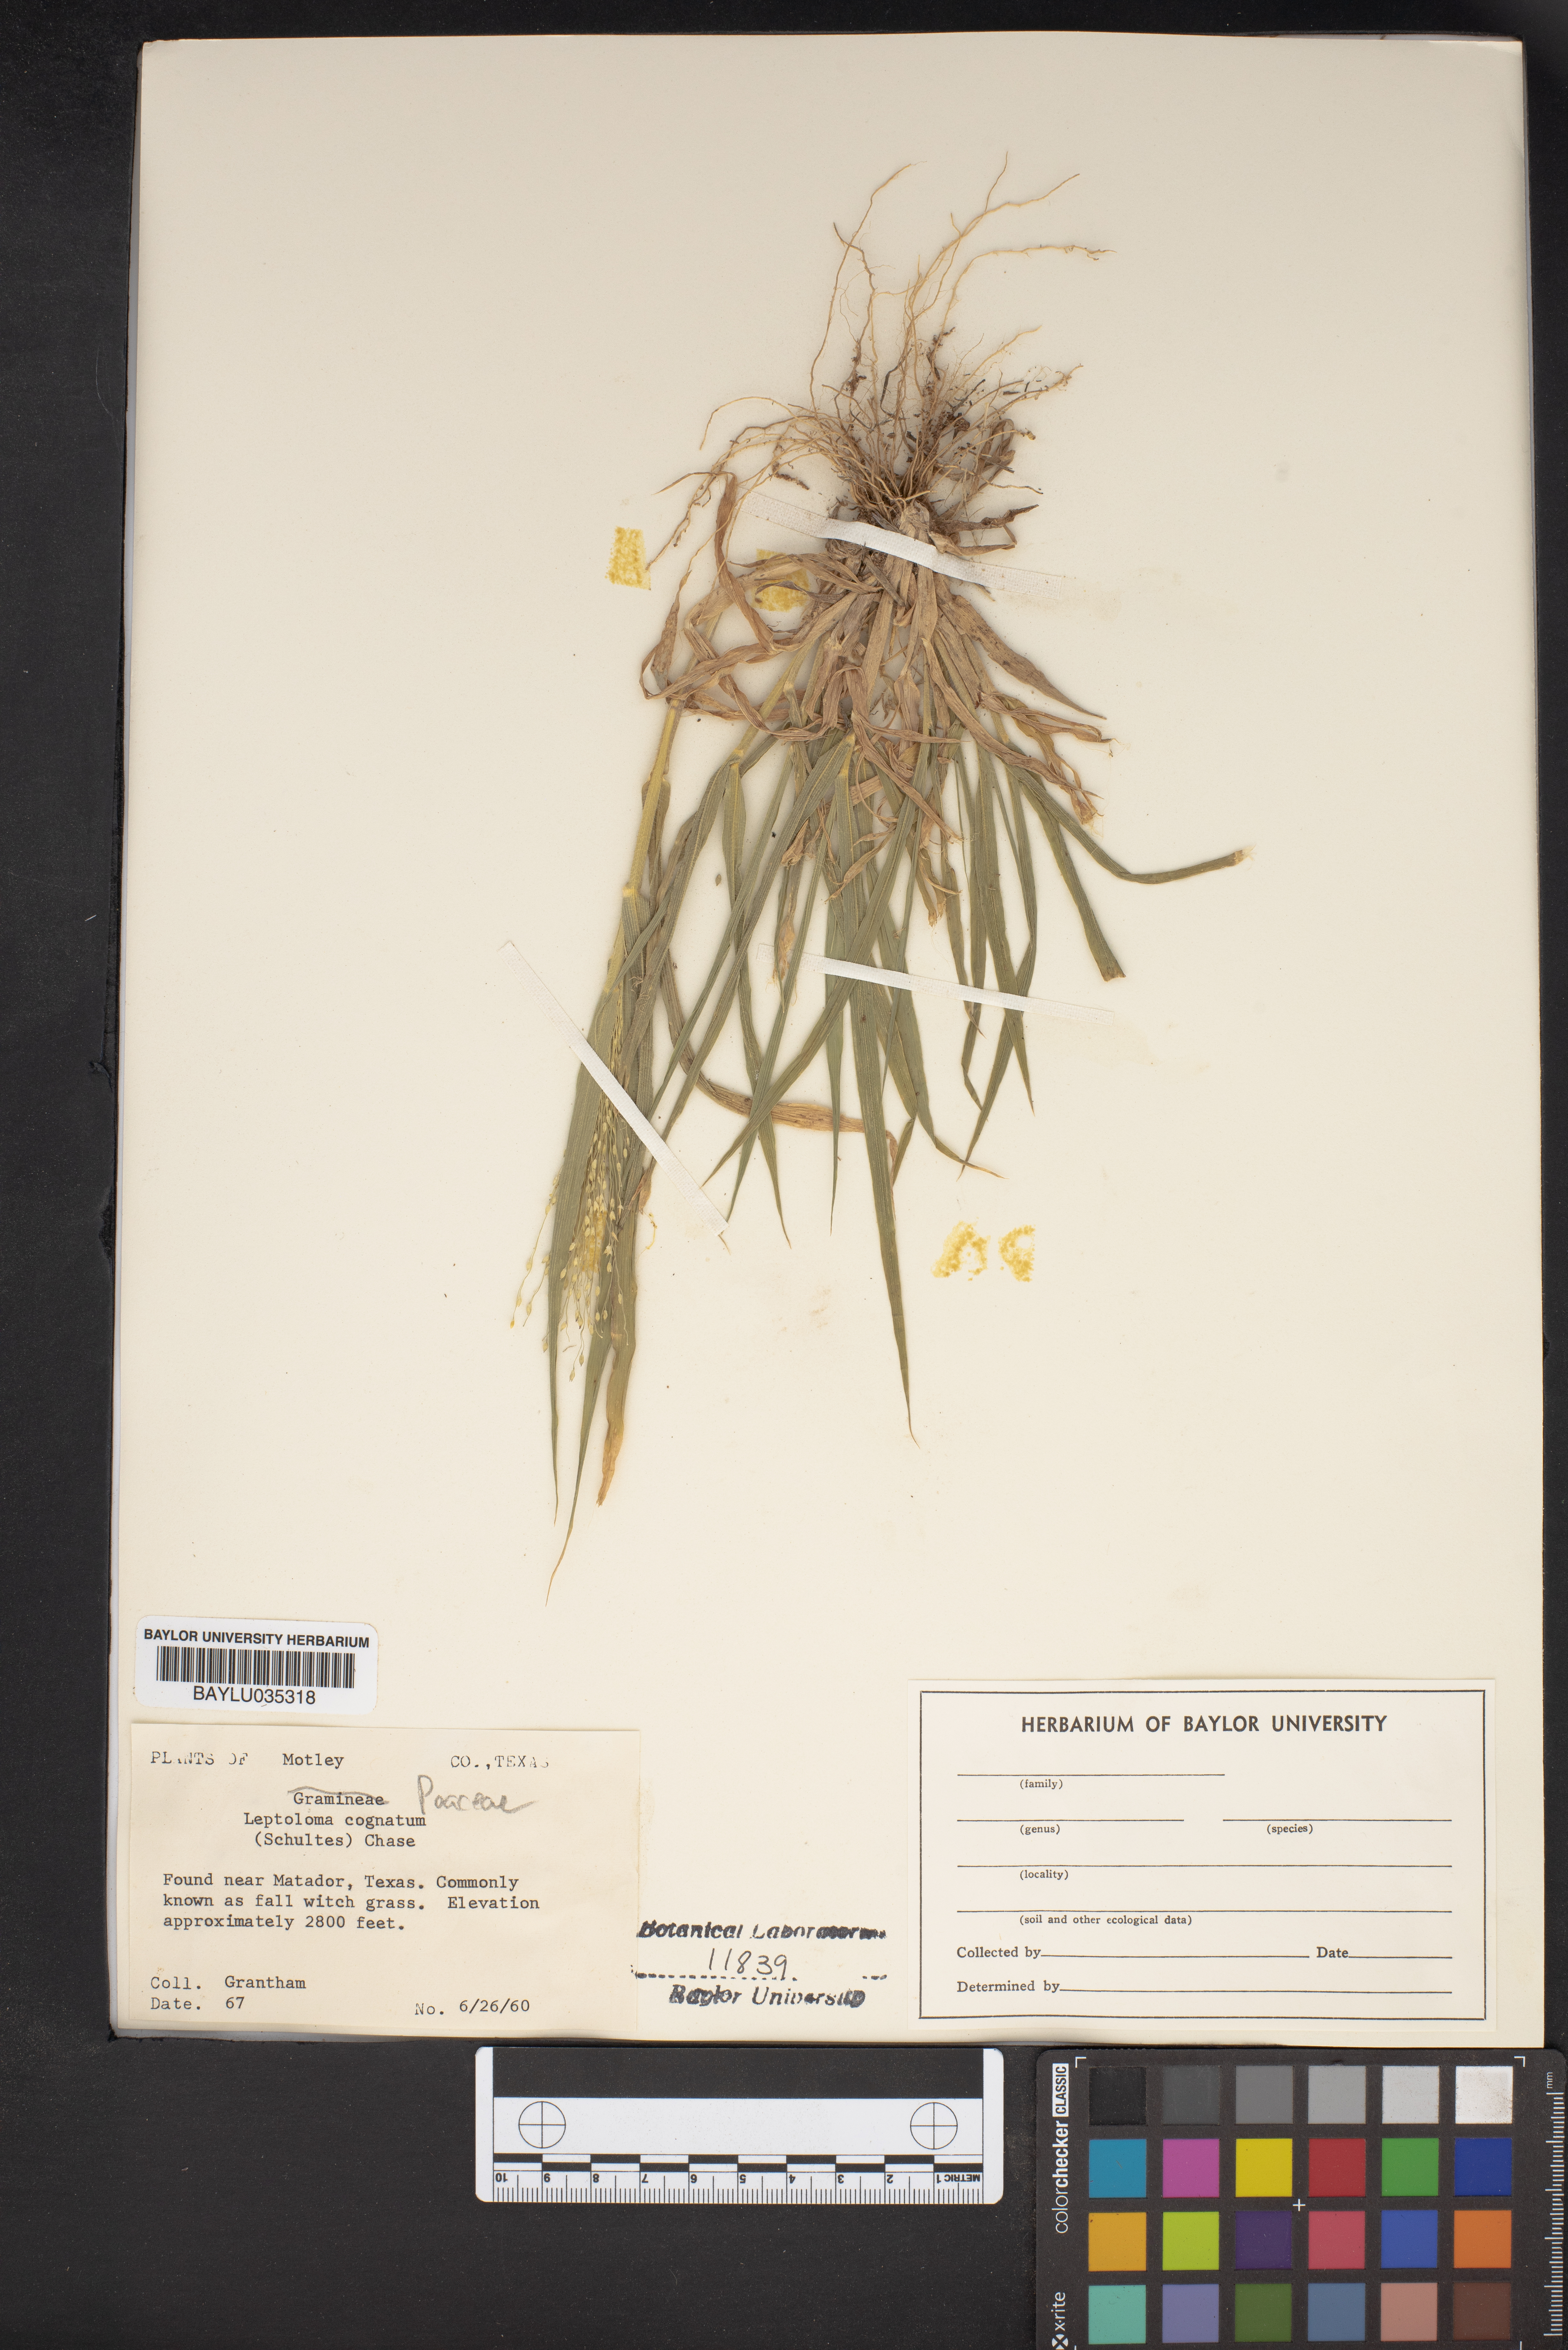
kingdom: Plantae
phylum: Tracheophyta
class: Liliopsida
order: Poales
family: Poaceae
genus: Digitaria
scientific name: Digitaria cognata
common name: Fall witchgrass
